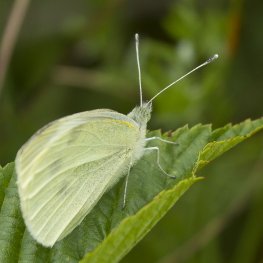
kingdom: Animalia
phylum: Arthropoda
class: Insecta
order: Lepidoptera
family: Pieridae
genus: Pieris
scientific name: Pieris rapae
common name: Cabbage White
